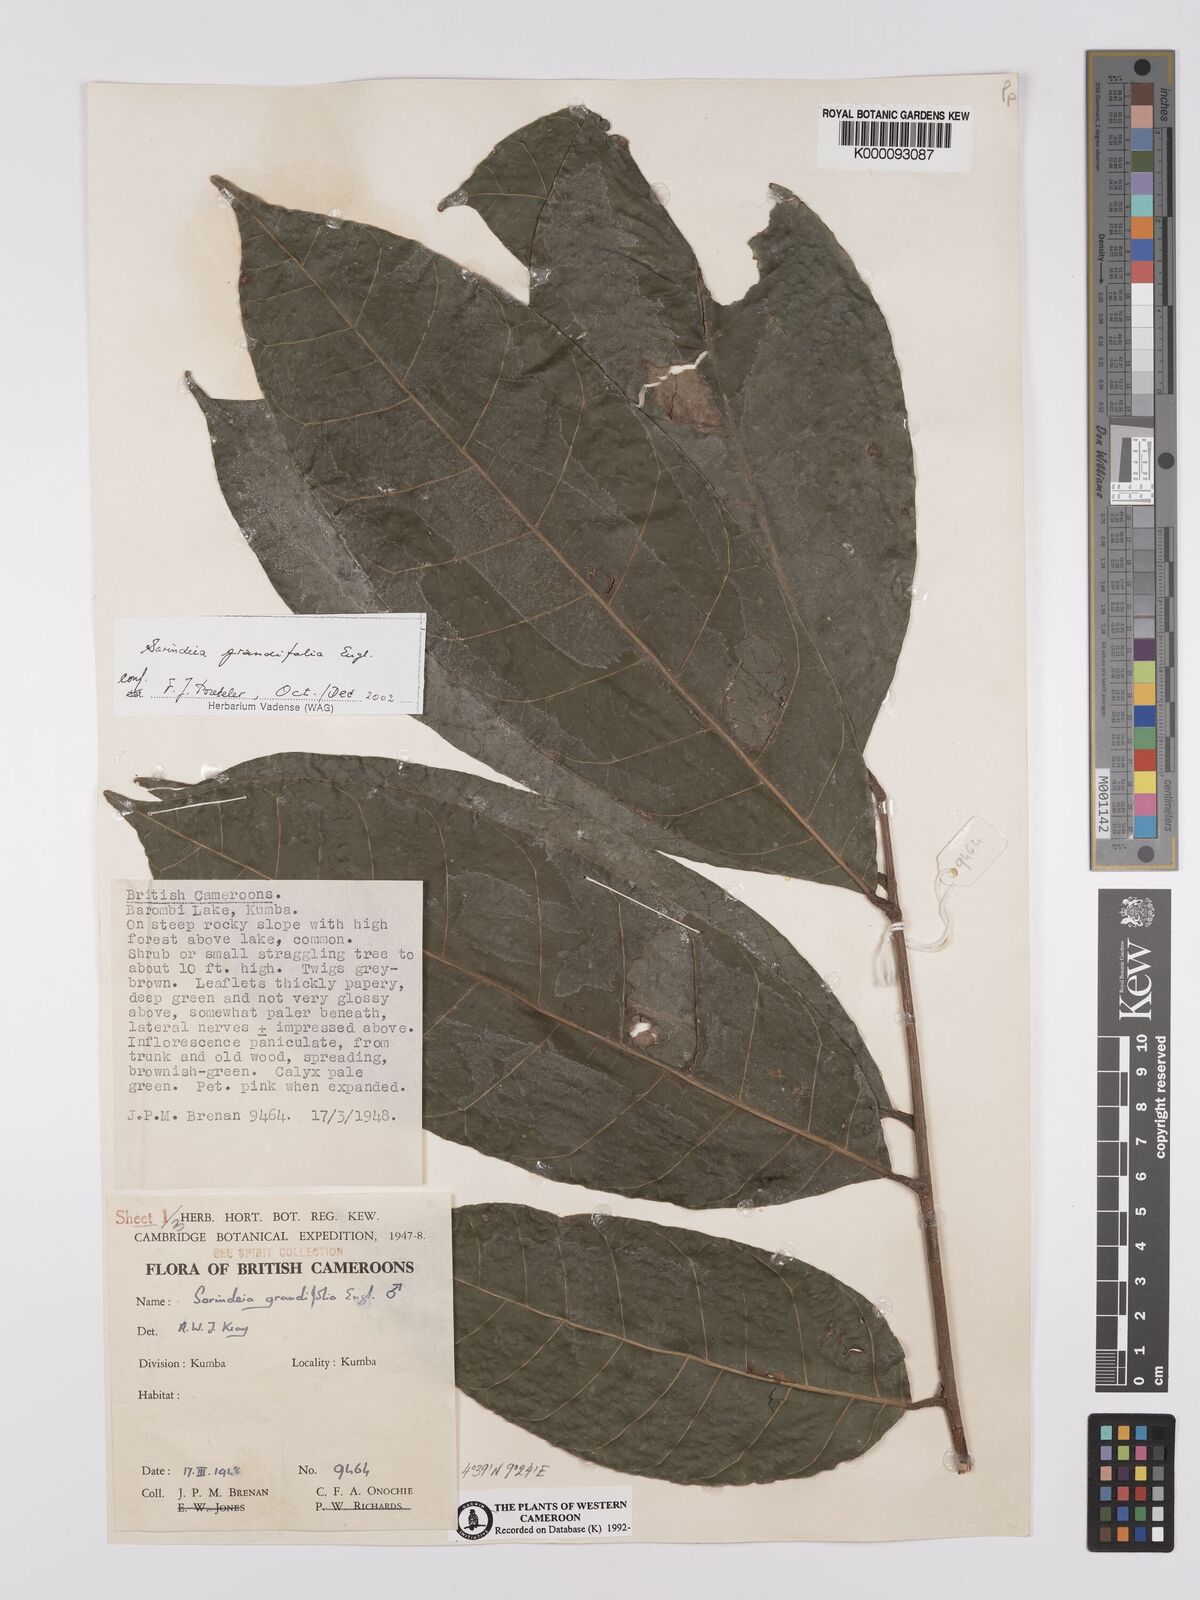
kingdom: Plantae
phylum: Tracheophyta
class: Magnoliopsida
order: Sapindales
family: Anacardiaceae
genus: Sorindeia
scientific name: Sorindeia grandifolia
